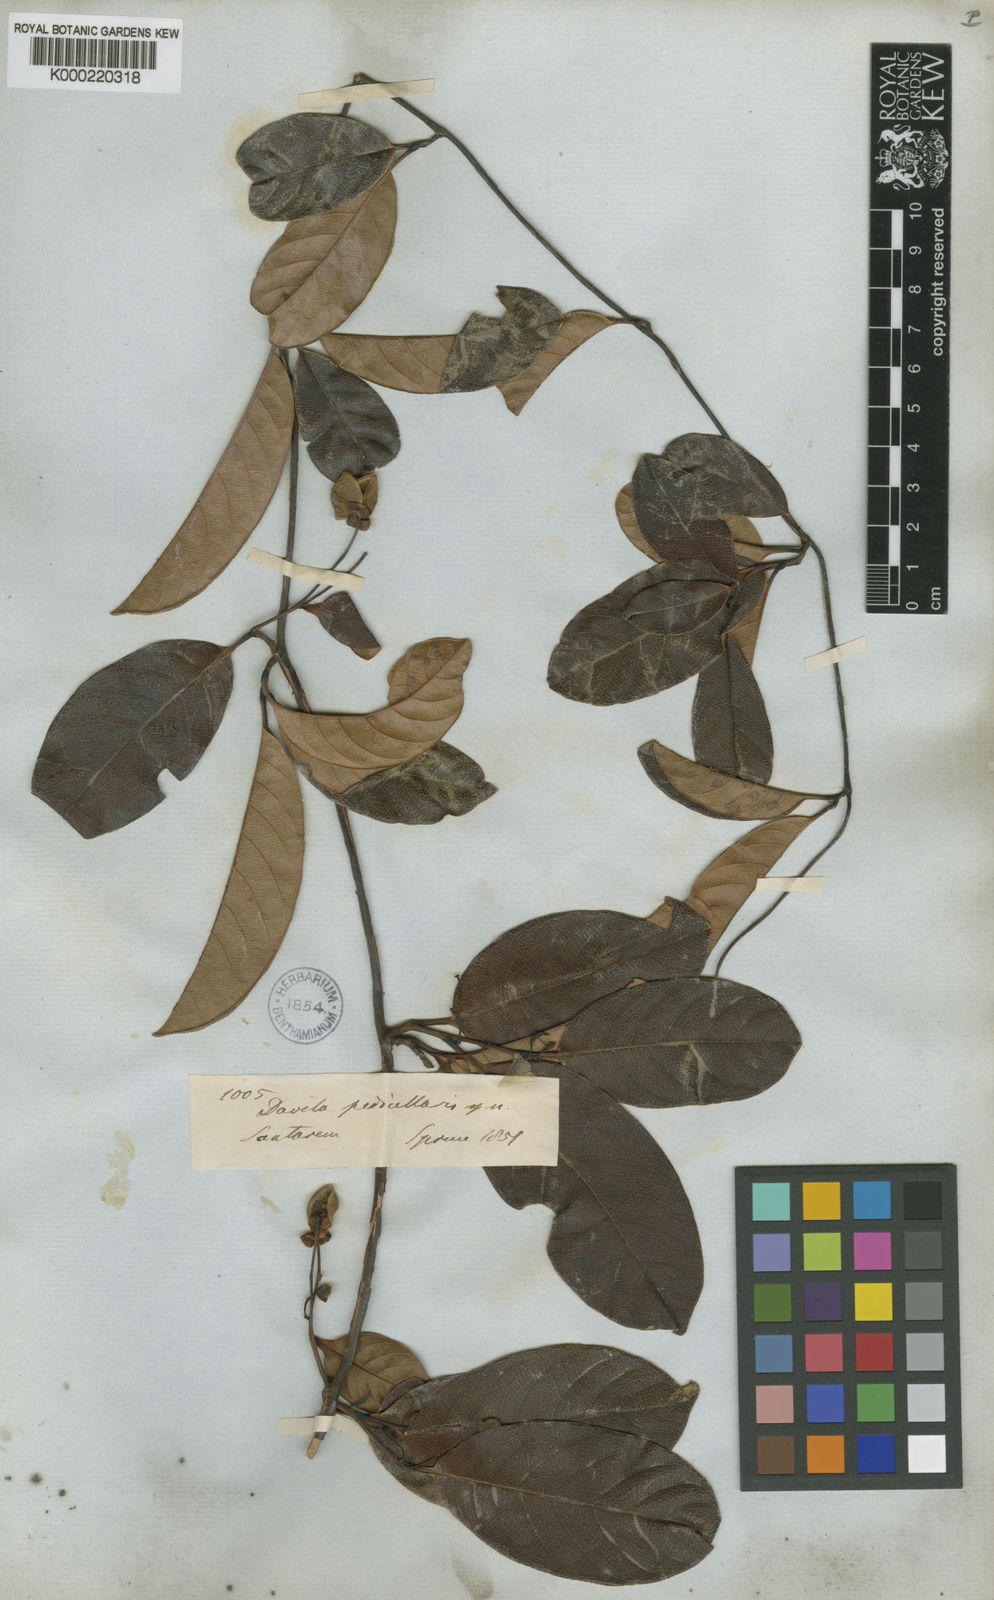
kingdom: Plantae
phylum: Tracheophyta
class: Magnoliopsida
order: Dilleniales
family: Dilleniaceae
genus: Davilla
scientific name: Davilla pedicellaris
